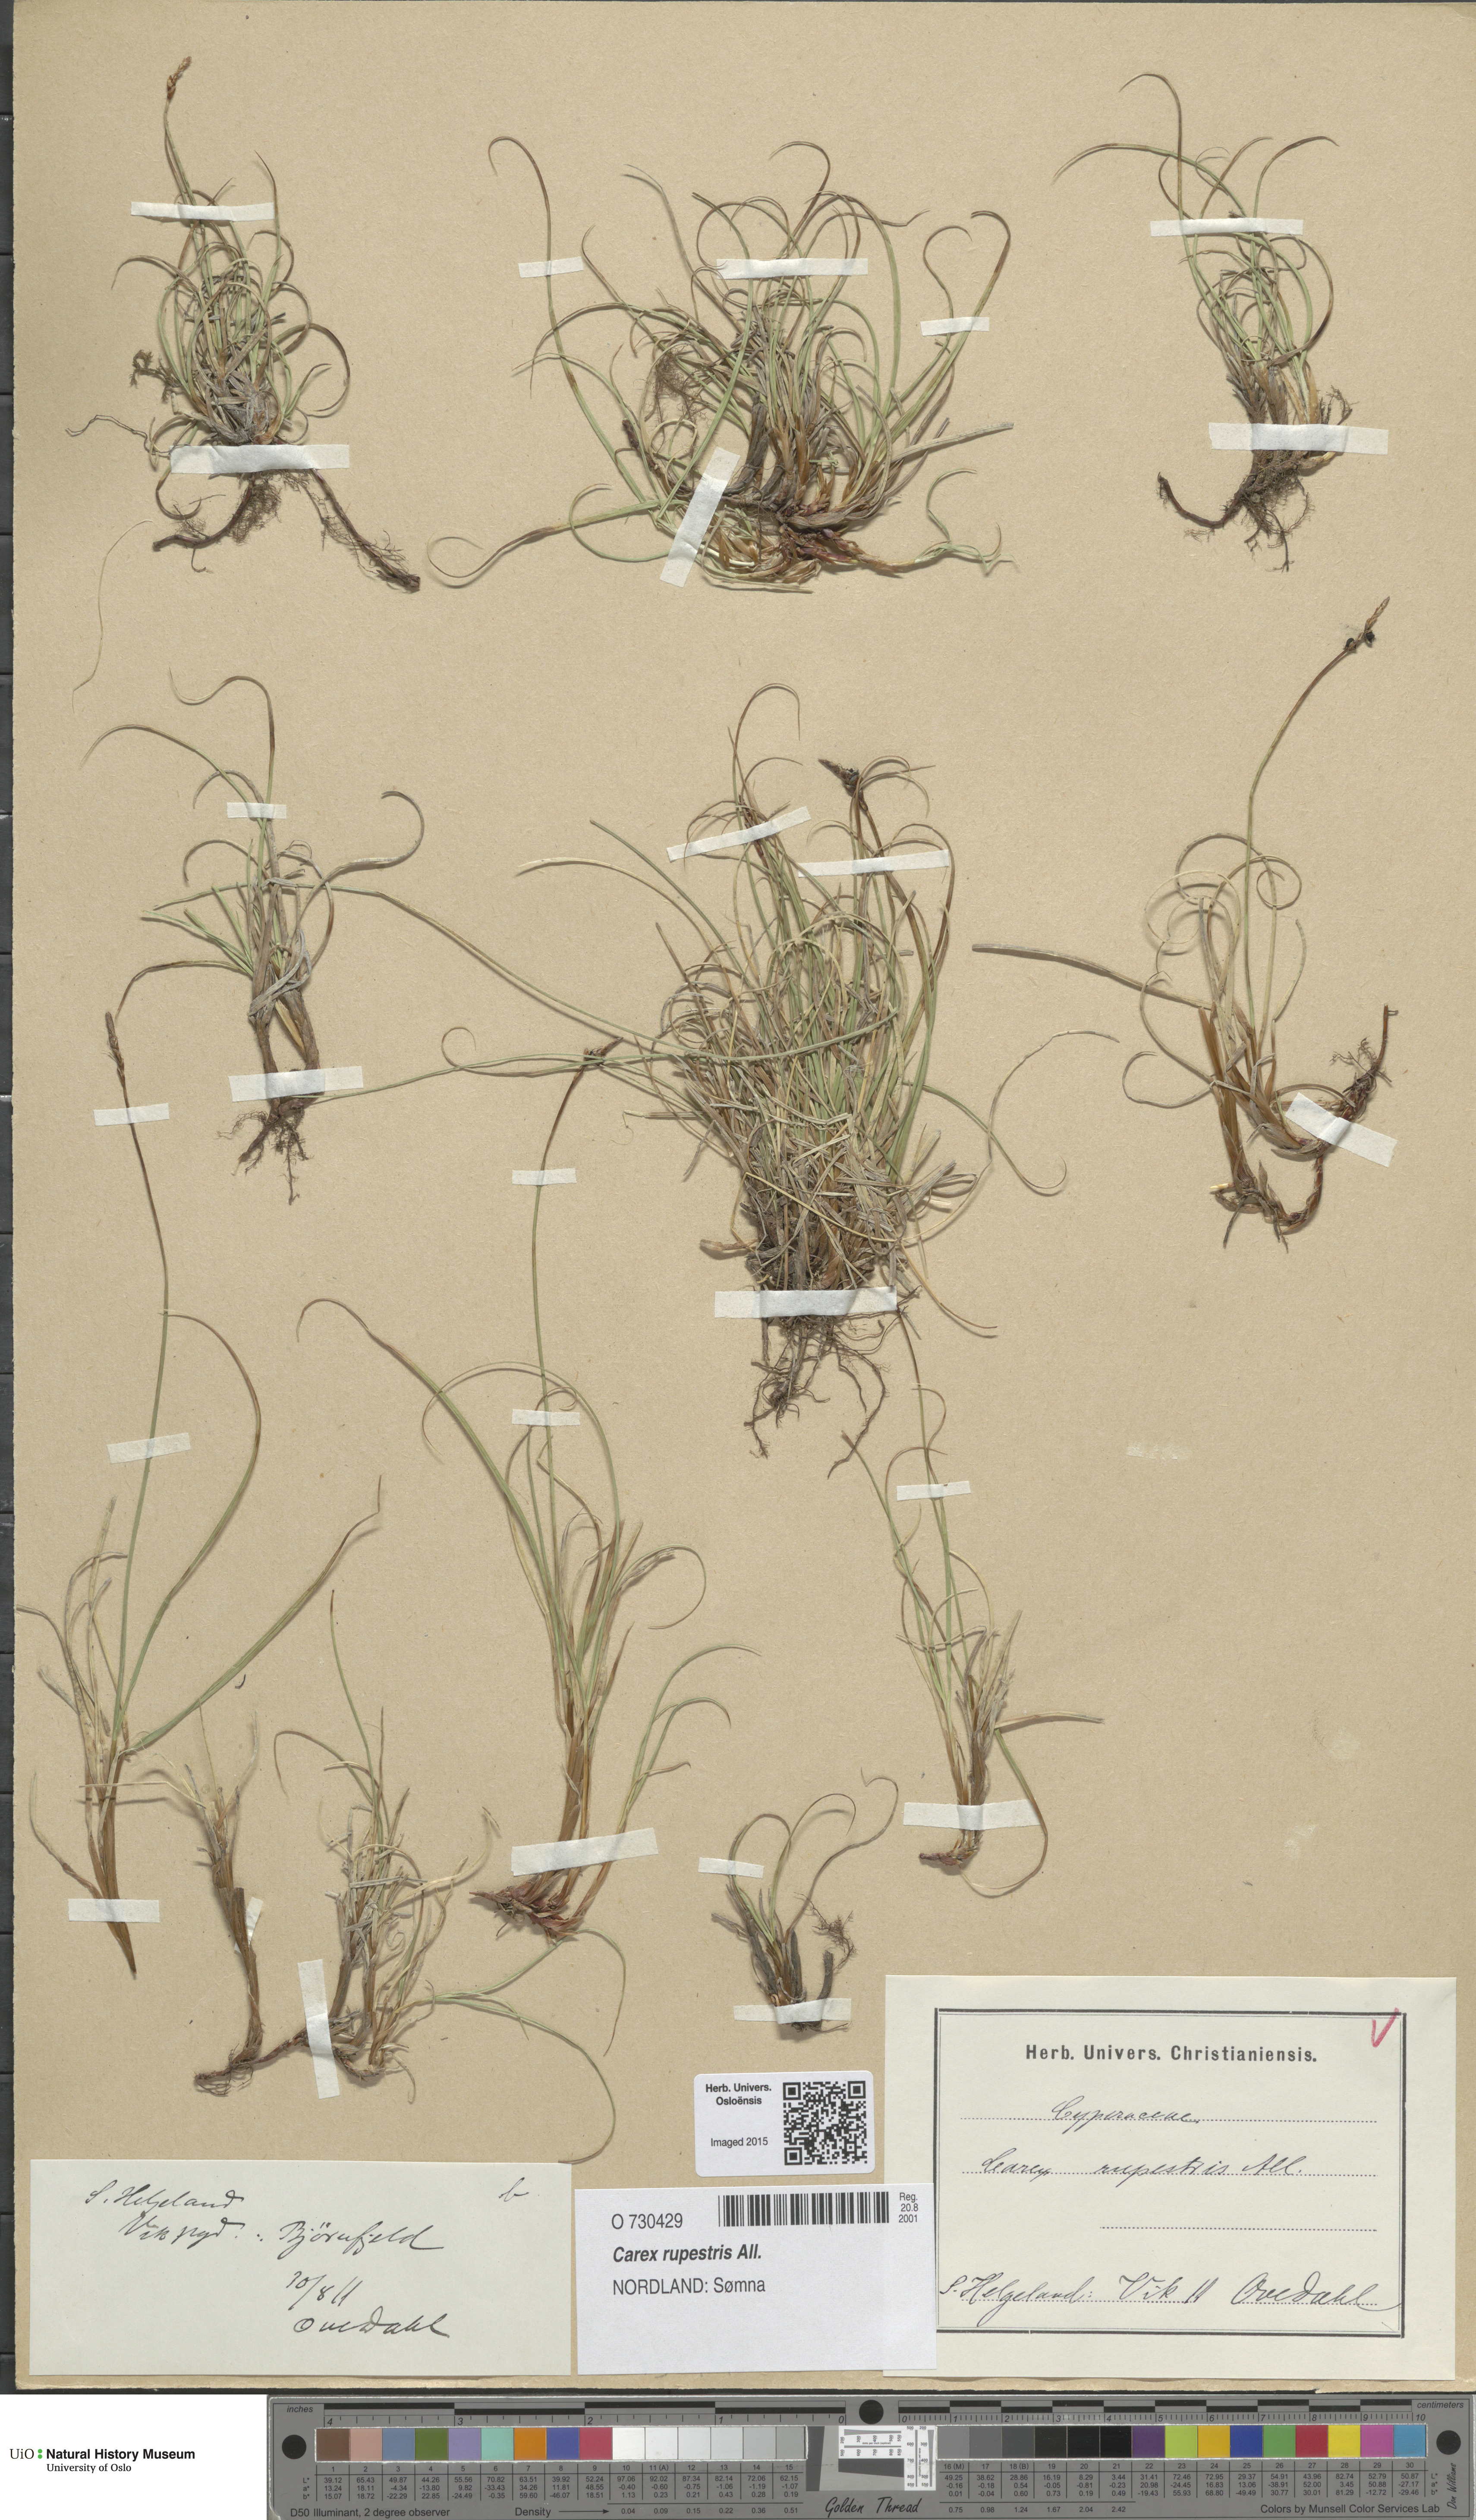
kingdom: Plantae
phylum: Tracheophyta
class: Liliopsida
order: Poales
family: Cyperaceae
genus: Carex
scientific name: Carex rupestris
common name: Rock sedge
